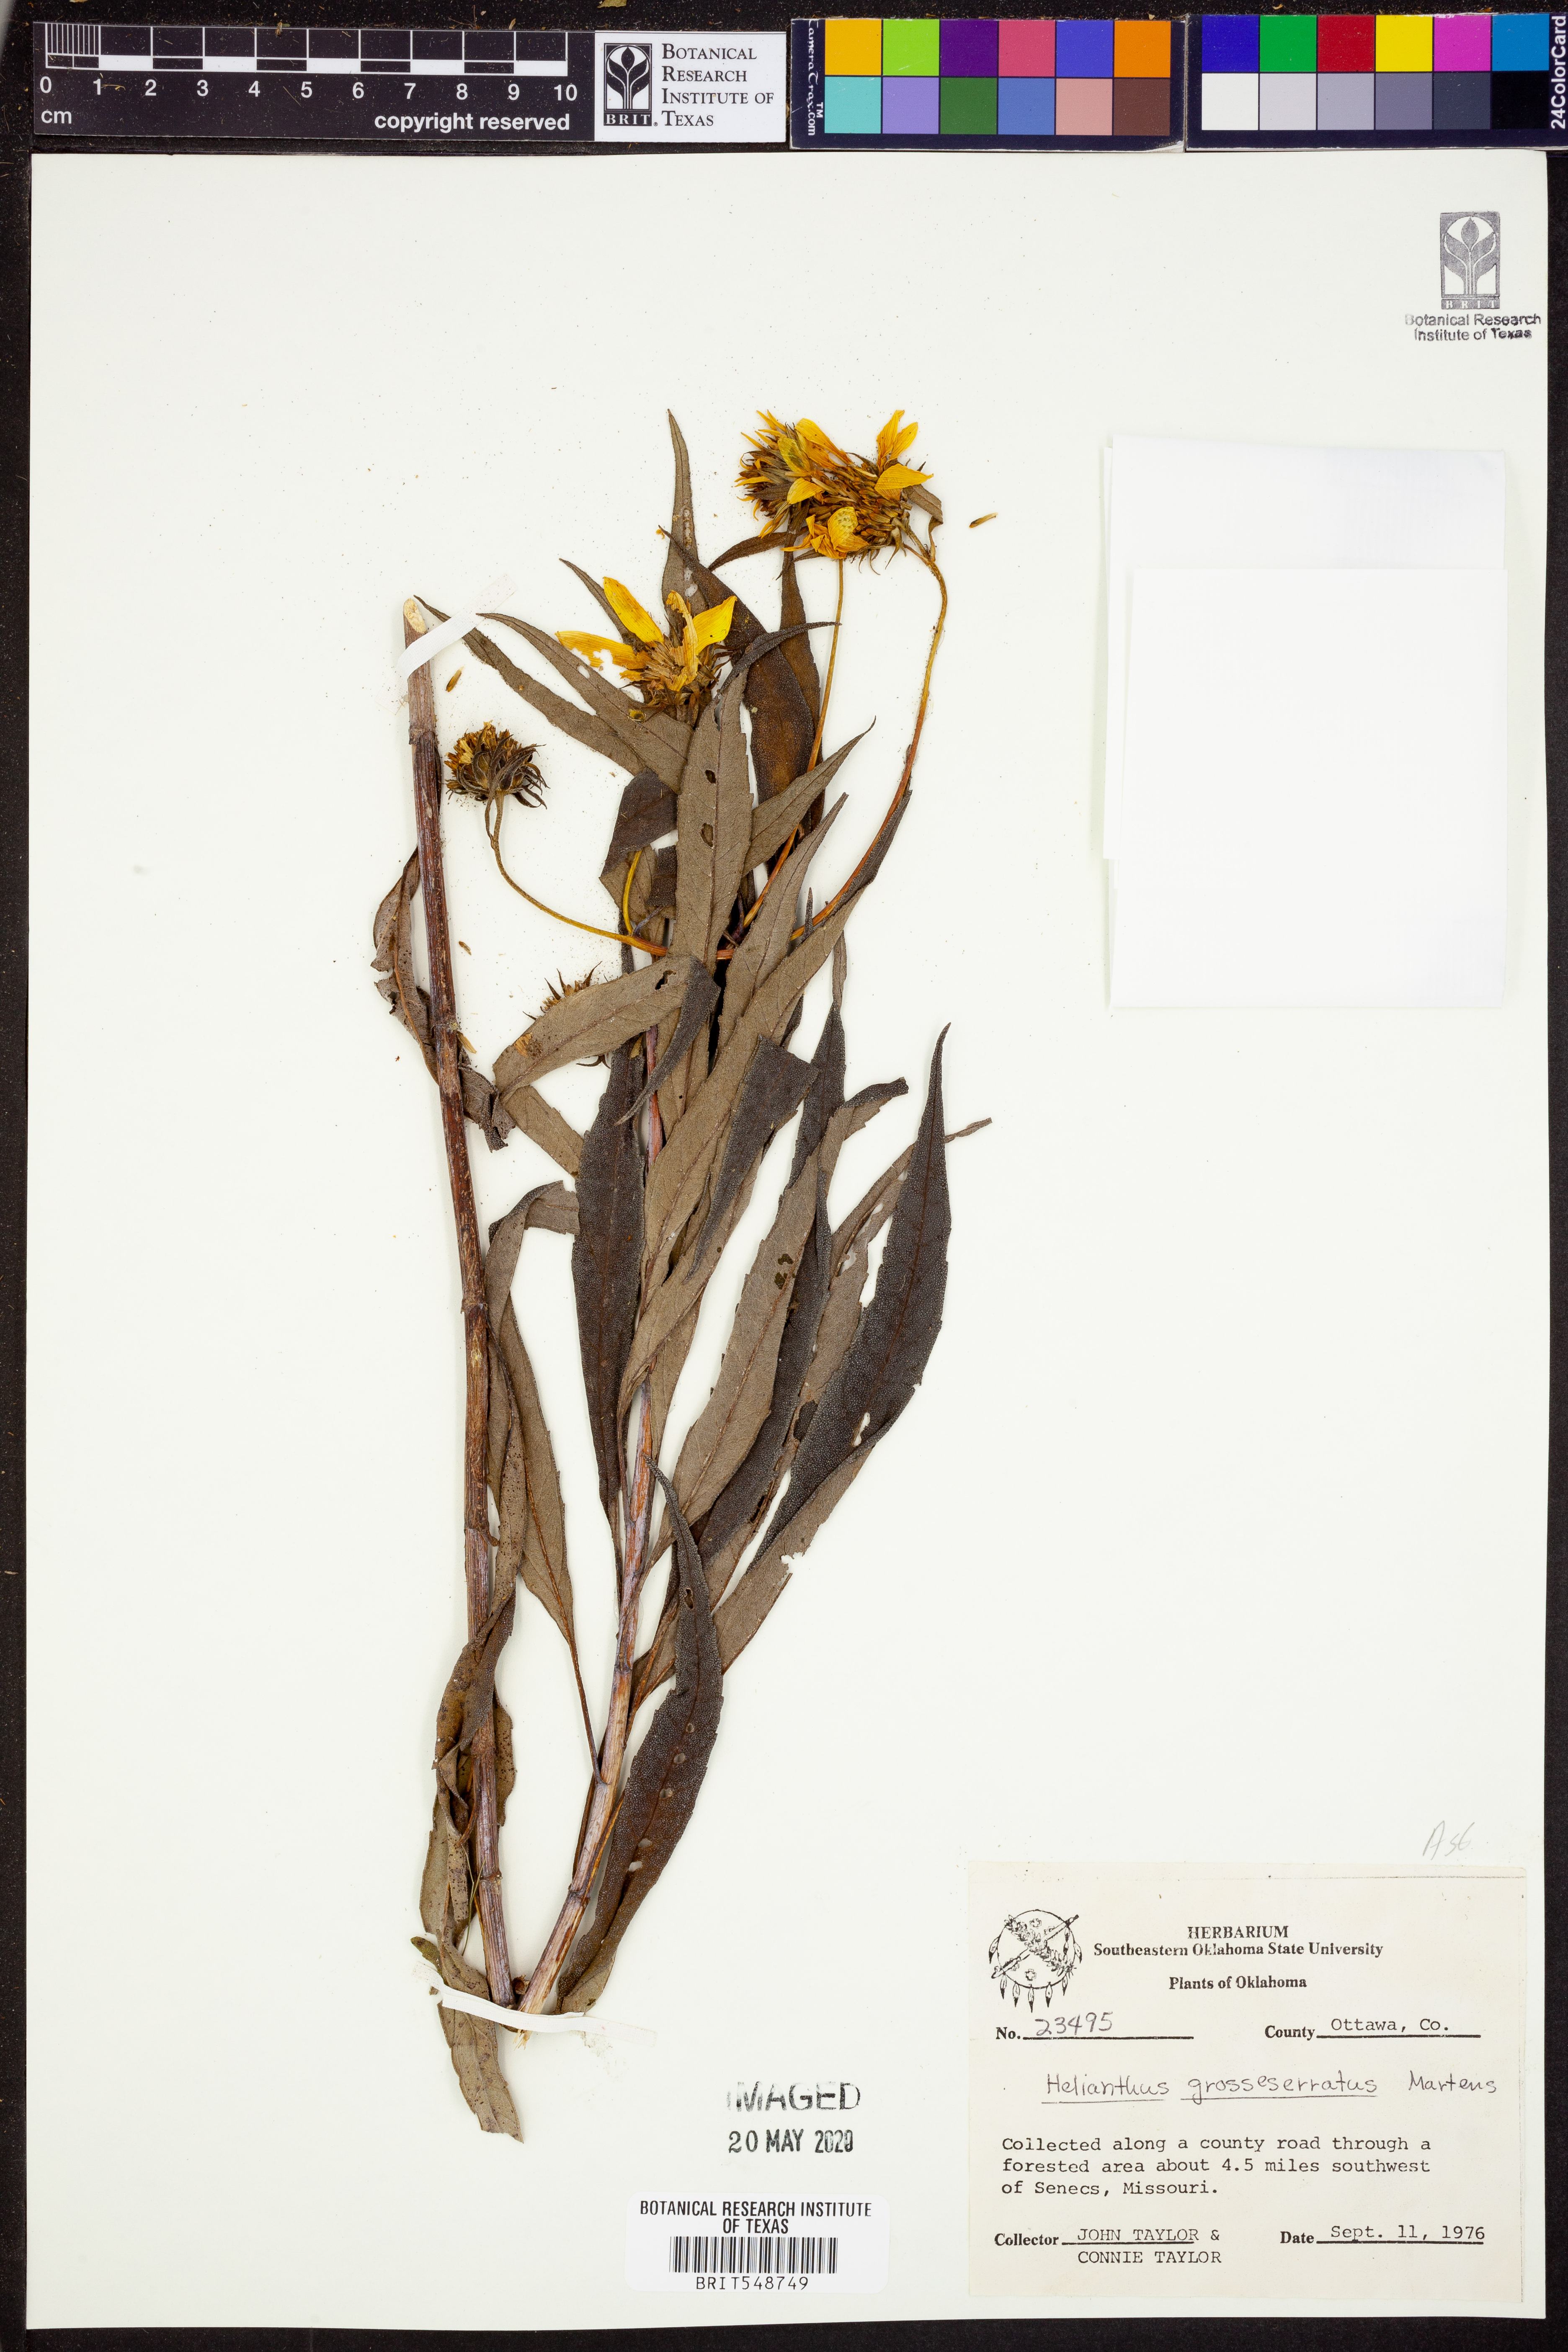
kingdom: Plantae
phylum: Tracheophyta
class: Magnoliopsida
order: Asterales
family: Asteraceae
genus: Helianthus
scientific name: Helianthus grosseserratus
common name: Sawtooth sunflower
